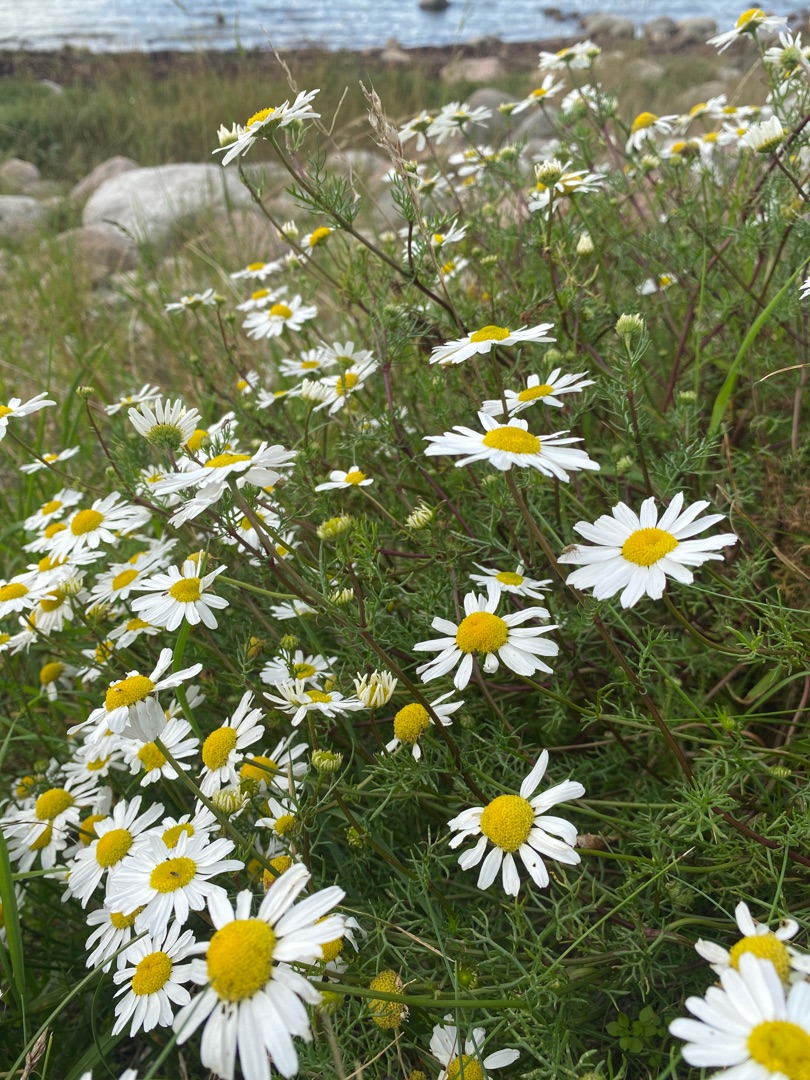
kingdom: Plantae
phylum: Tracheophyta
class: Magnoliopsida
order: Asterales
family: Asteraceae
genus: Tripleurospermum
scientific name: Tripleurospermum maritimum
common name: Strand-kamille
